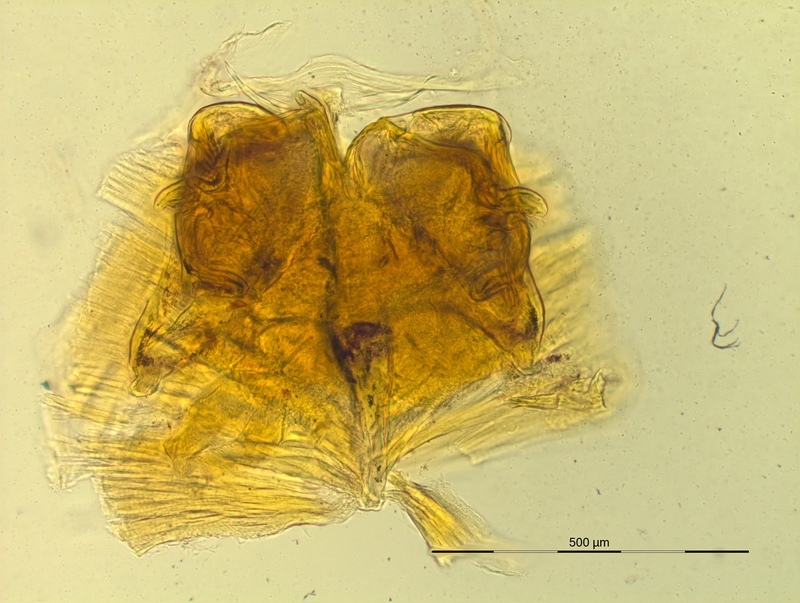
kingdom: Animalia
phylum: Arthropoda
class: Diplopoda
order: Chordeumatida
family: Craspedosomatidae
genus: Pyrgocyphosoma
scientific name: Pyrgocyphosoma titianum
